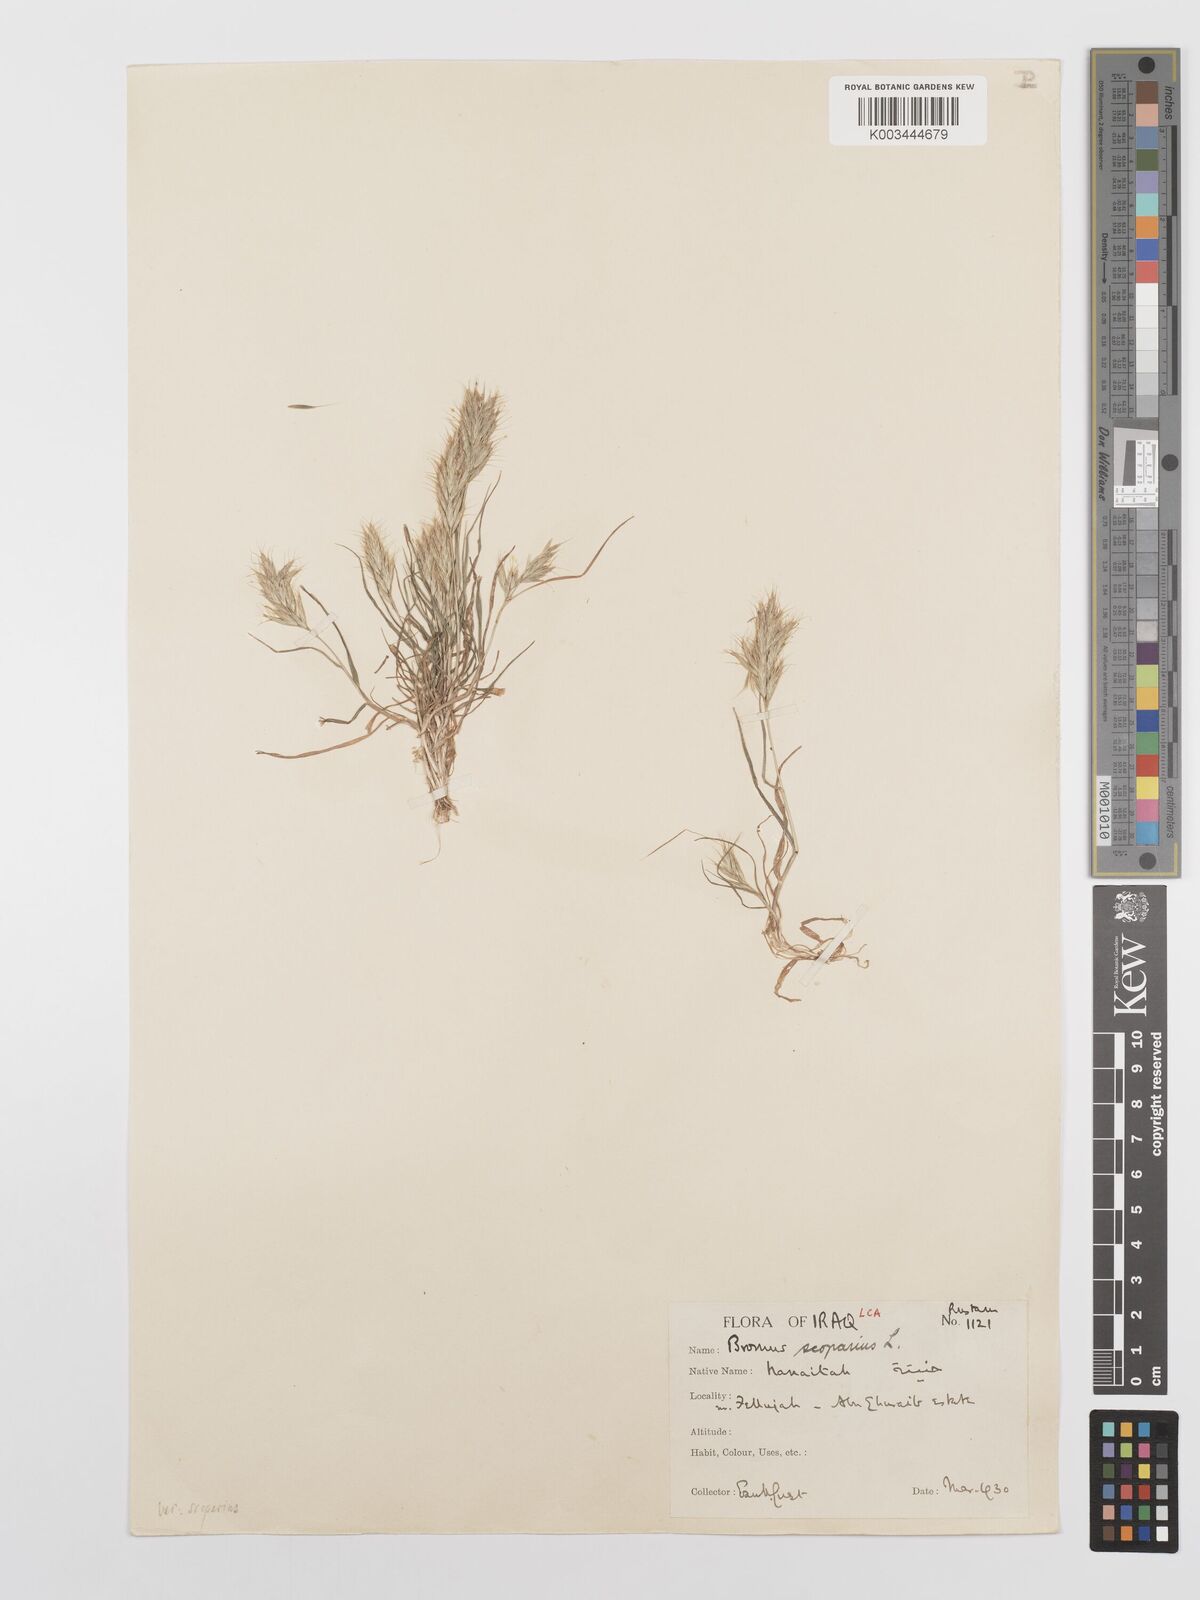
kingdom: Plantae
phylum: Tracheophyta
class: Liliopsida
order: Poales
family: Poaceae
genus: Bromus
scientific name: Bromus scoparius
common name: Broom brome
